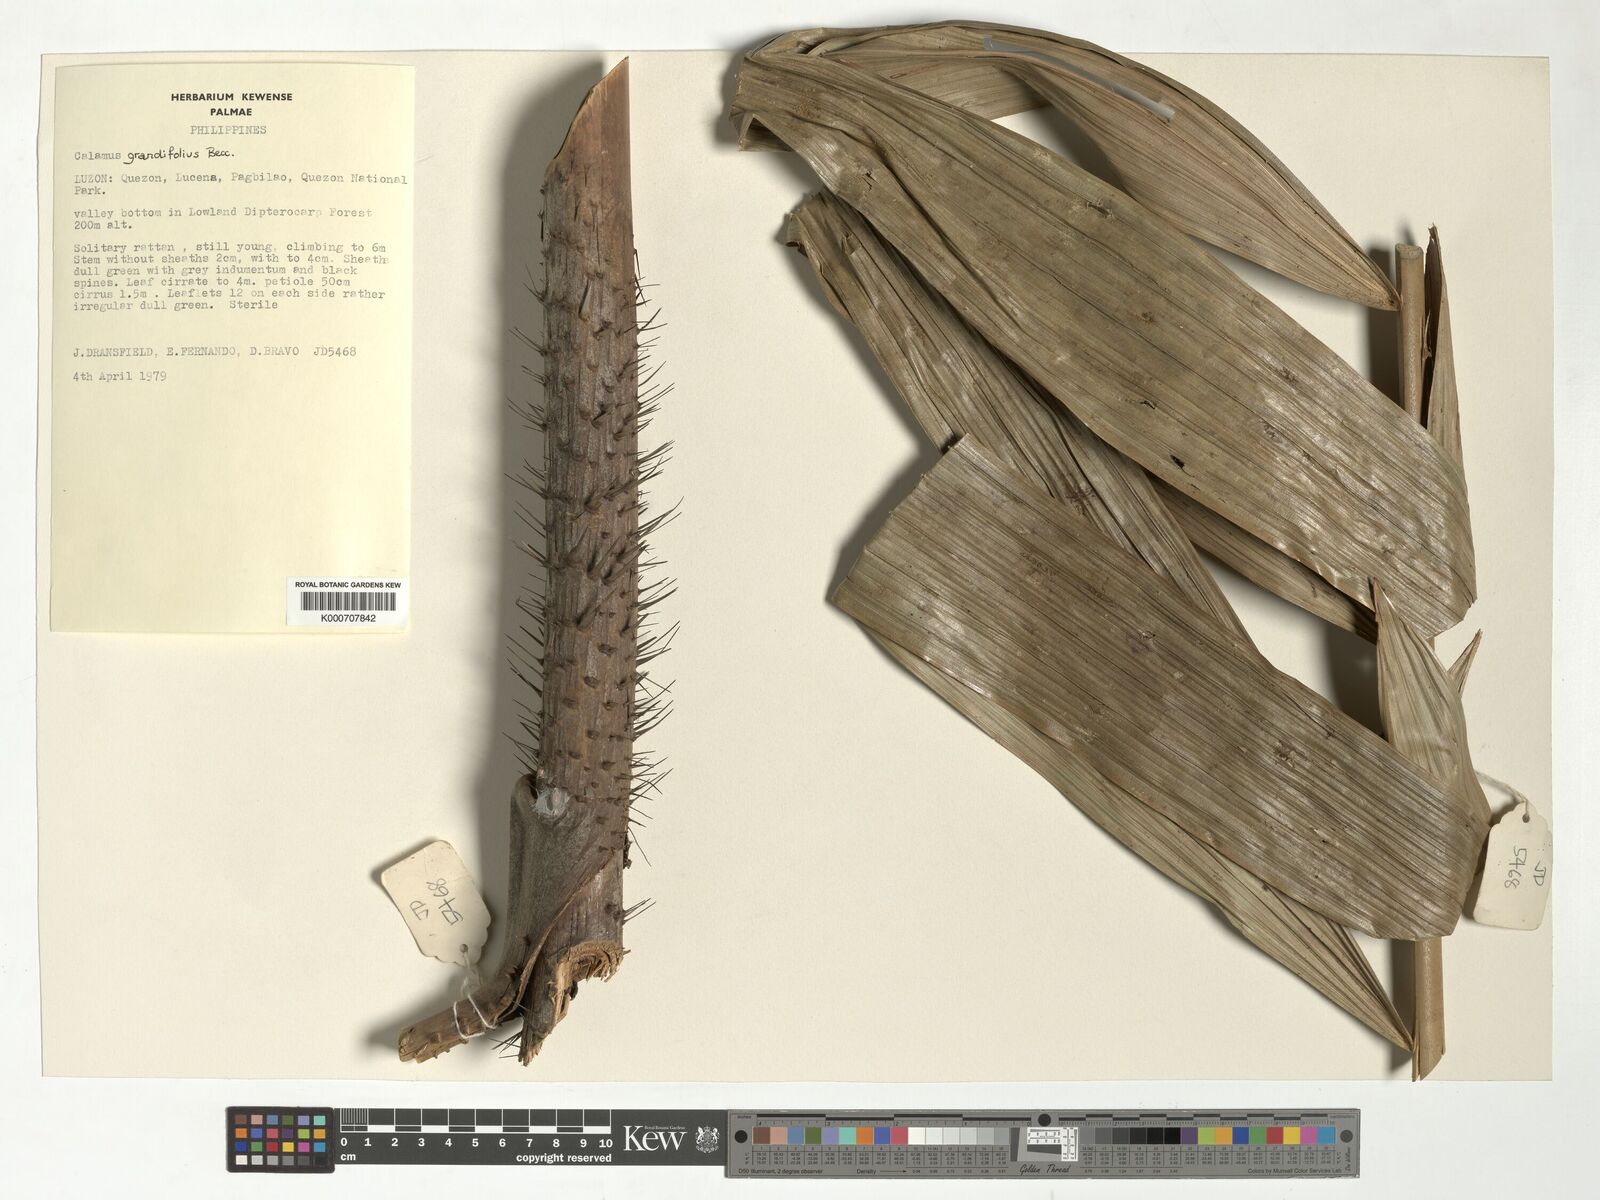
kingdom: Plantae
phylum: Tracheophyta
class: Liliopsida
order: Arecales
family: Arecaceae
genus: Calamus
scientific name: Calamus moseleyanus
